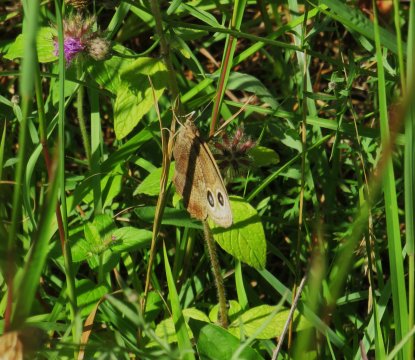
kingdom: Animalia
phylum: Arthropoda
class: Insecta
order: Lepidoptera
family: Nymphalidae
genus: Cercyonis
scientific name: Cercyonis pegala
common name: Common Wood-Nymph
